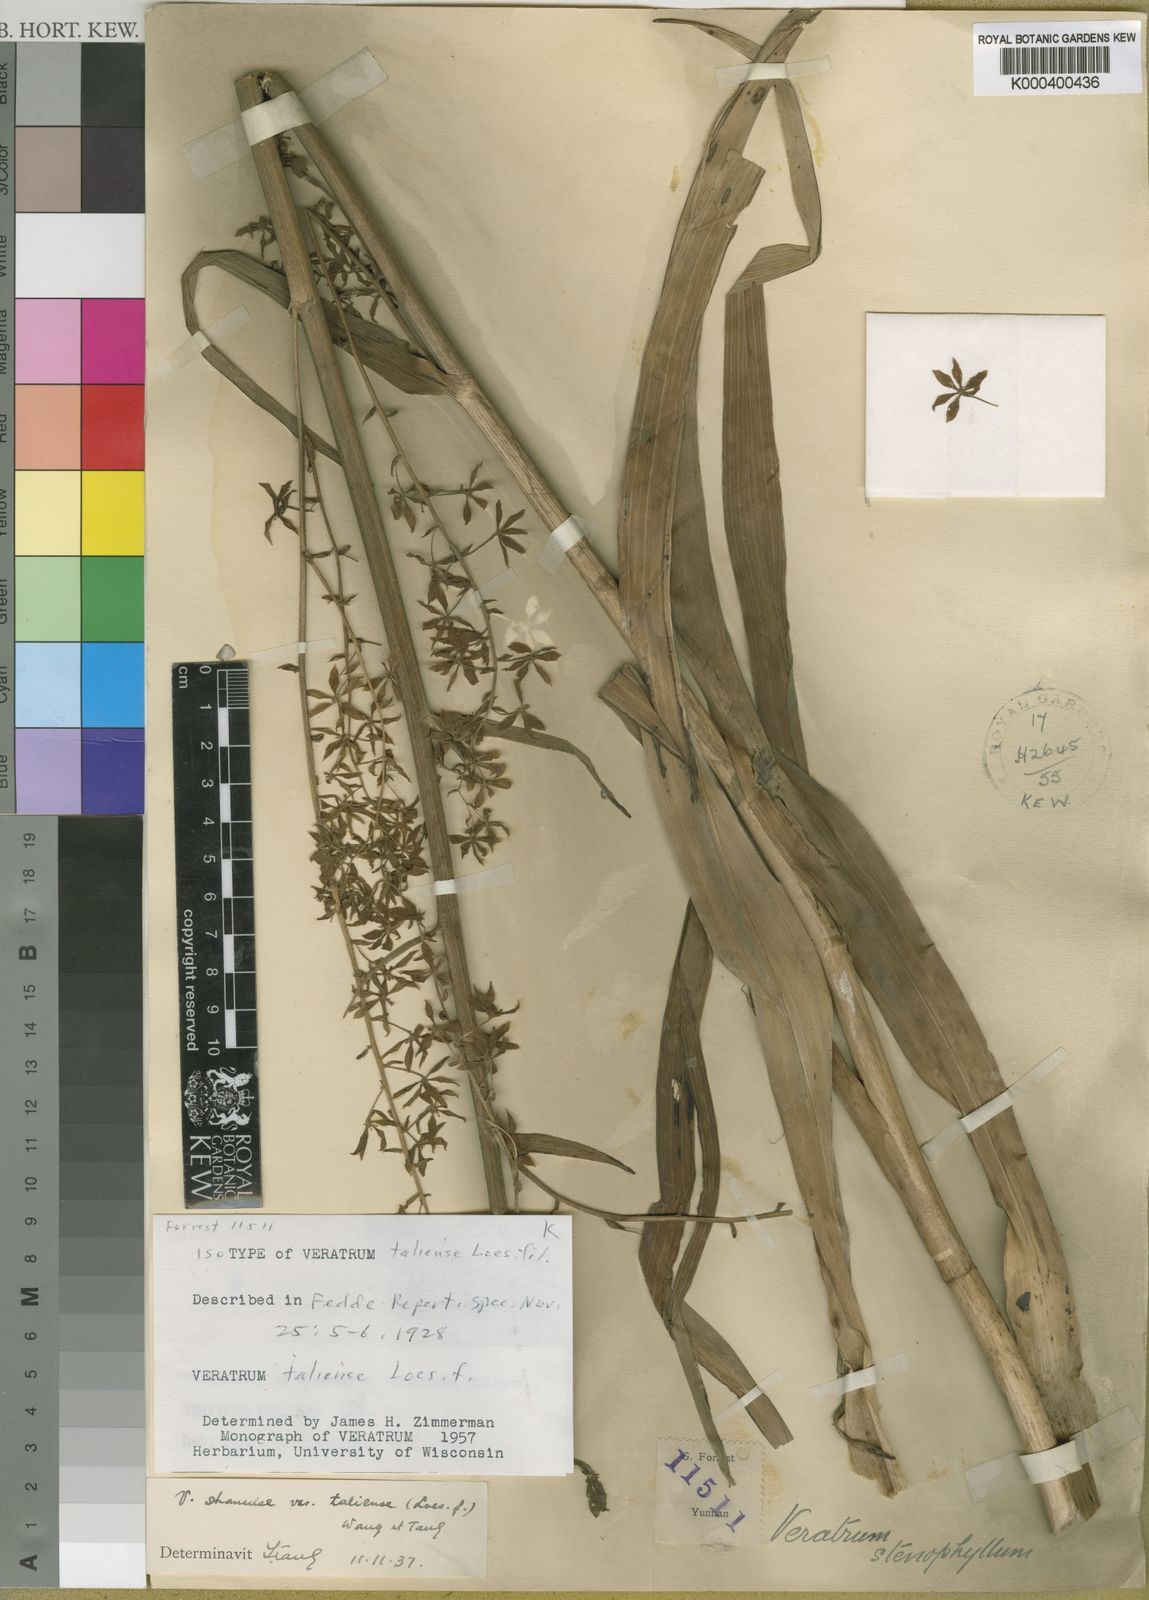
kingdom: Plantae
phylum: Tracheophyta
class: Liliopsida
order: Liliales
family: Melanthiaceae
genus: Veratrum
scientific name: Veratrum taliense
